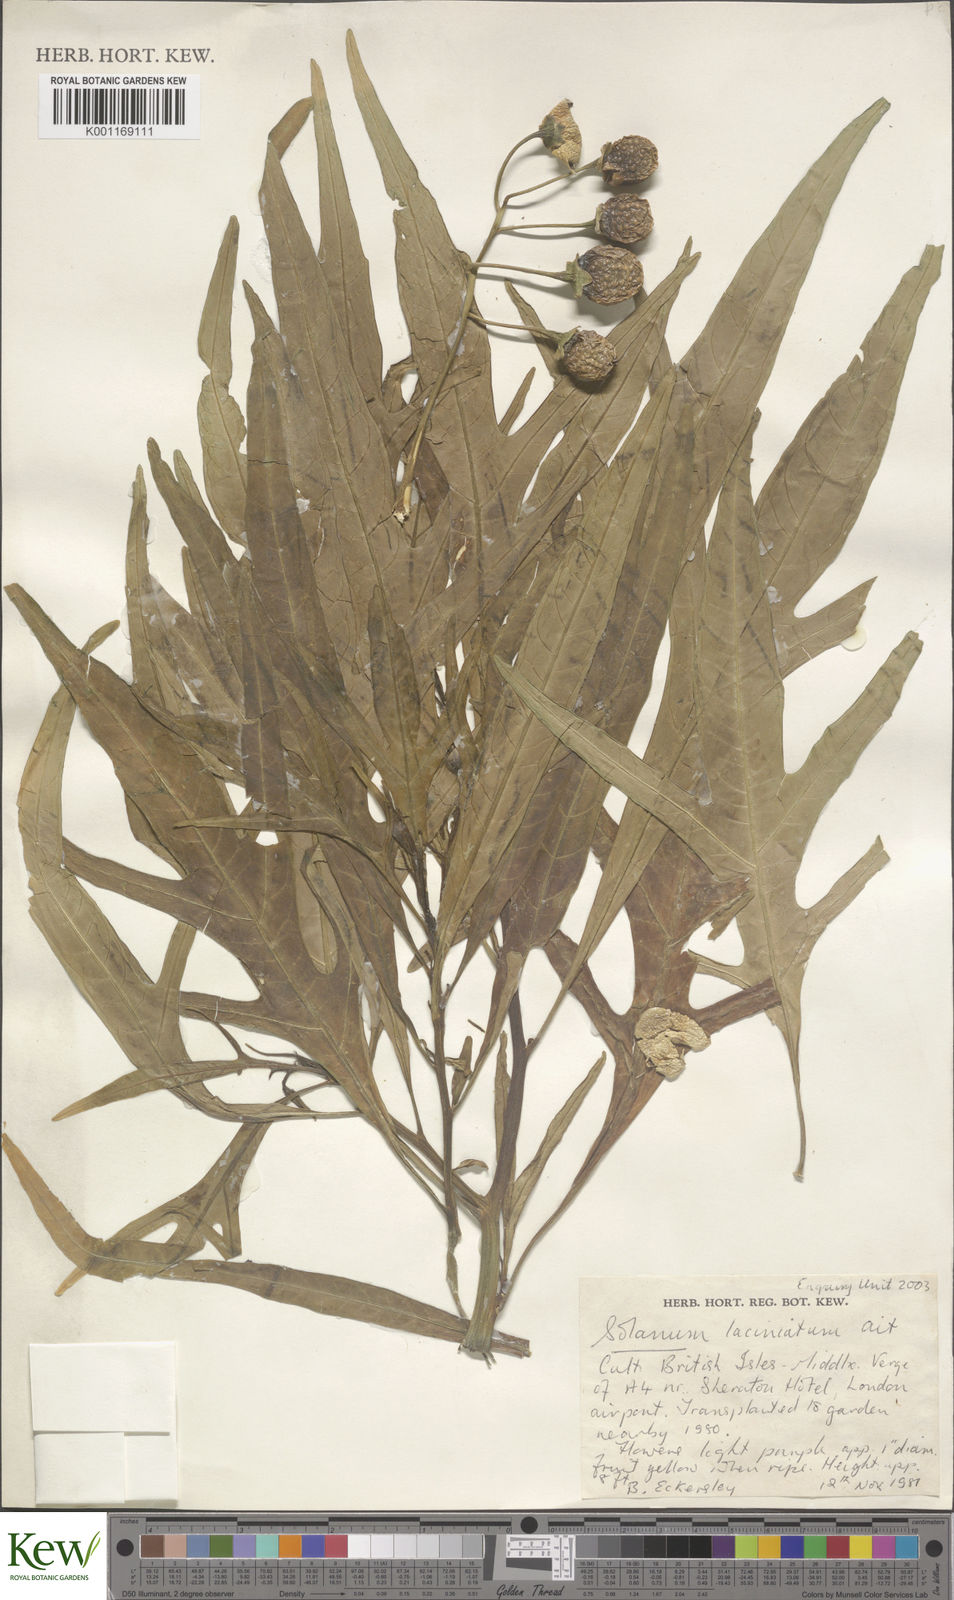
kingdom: Plantae
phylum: Tracheophyta
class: Magnoliopsida
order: Solanales
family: Solanaceae
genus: Solanum
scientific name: Solanum laciniatum
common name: Kangaroo-apple
